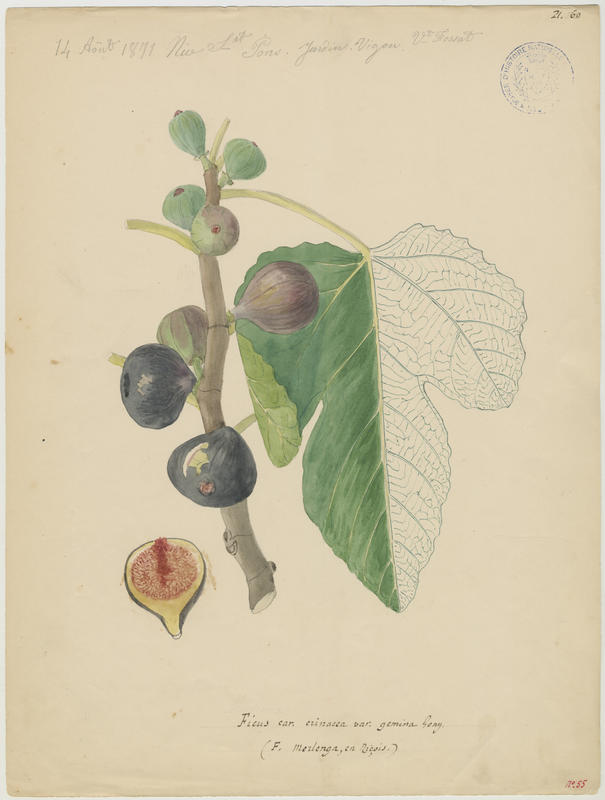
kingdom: Plantae
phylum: Tracheophyta
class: Magnoliopsida
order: Rosales
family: Moraceae
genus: Ficus
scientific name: Ficus carica
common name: Fig
